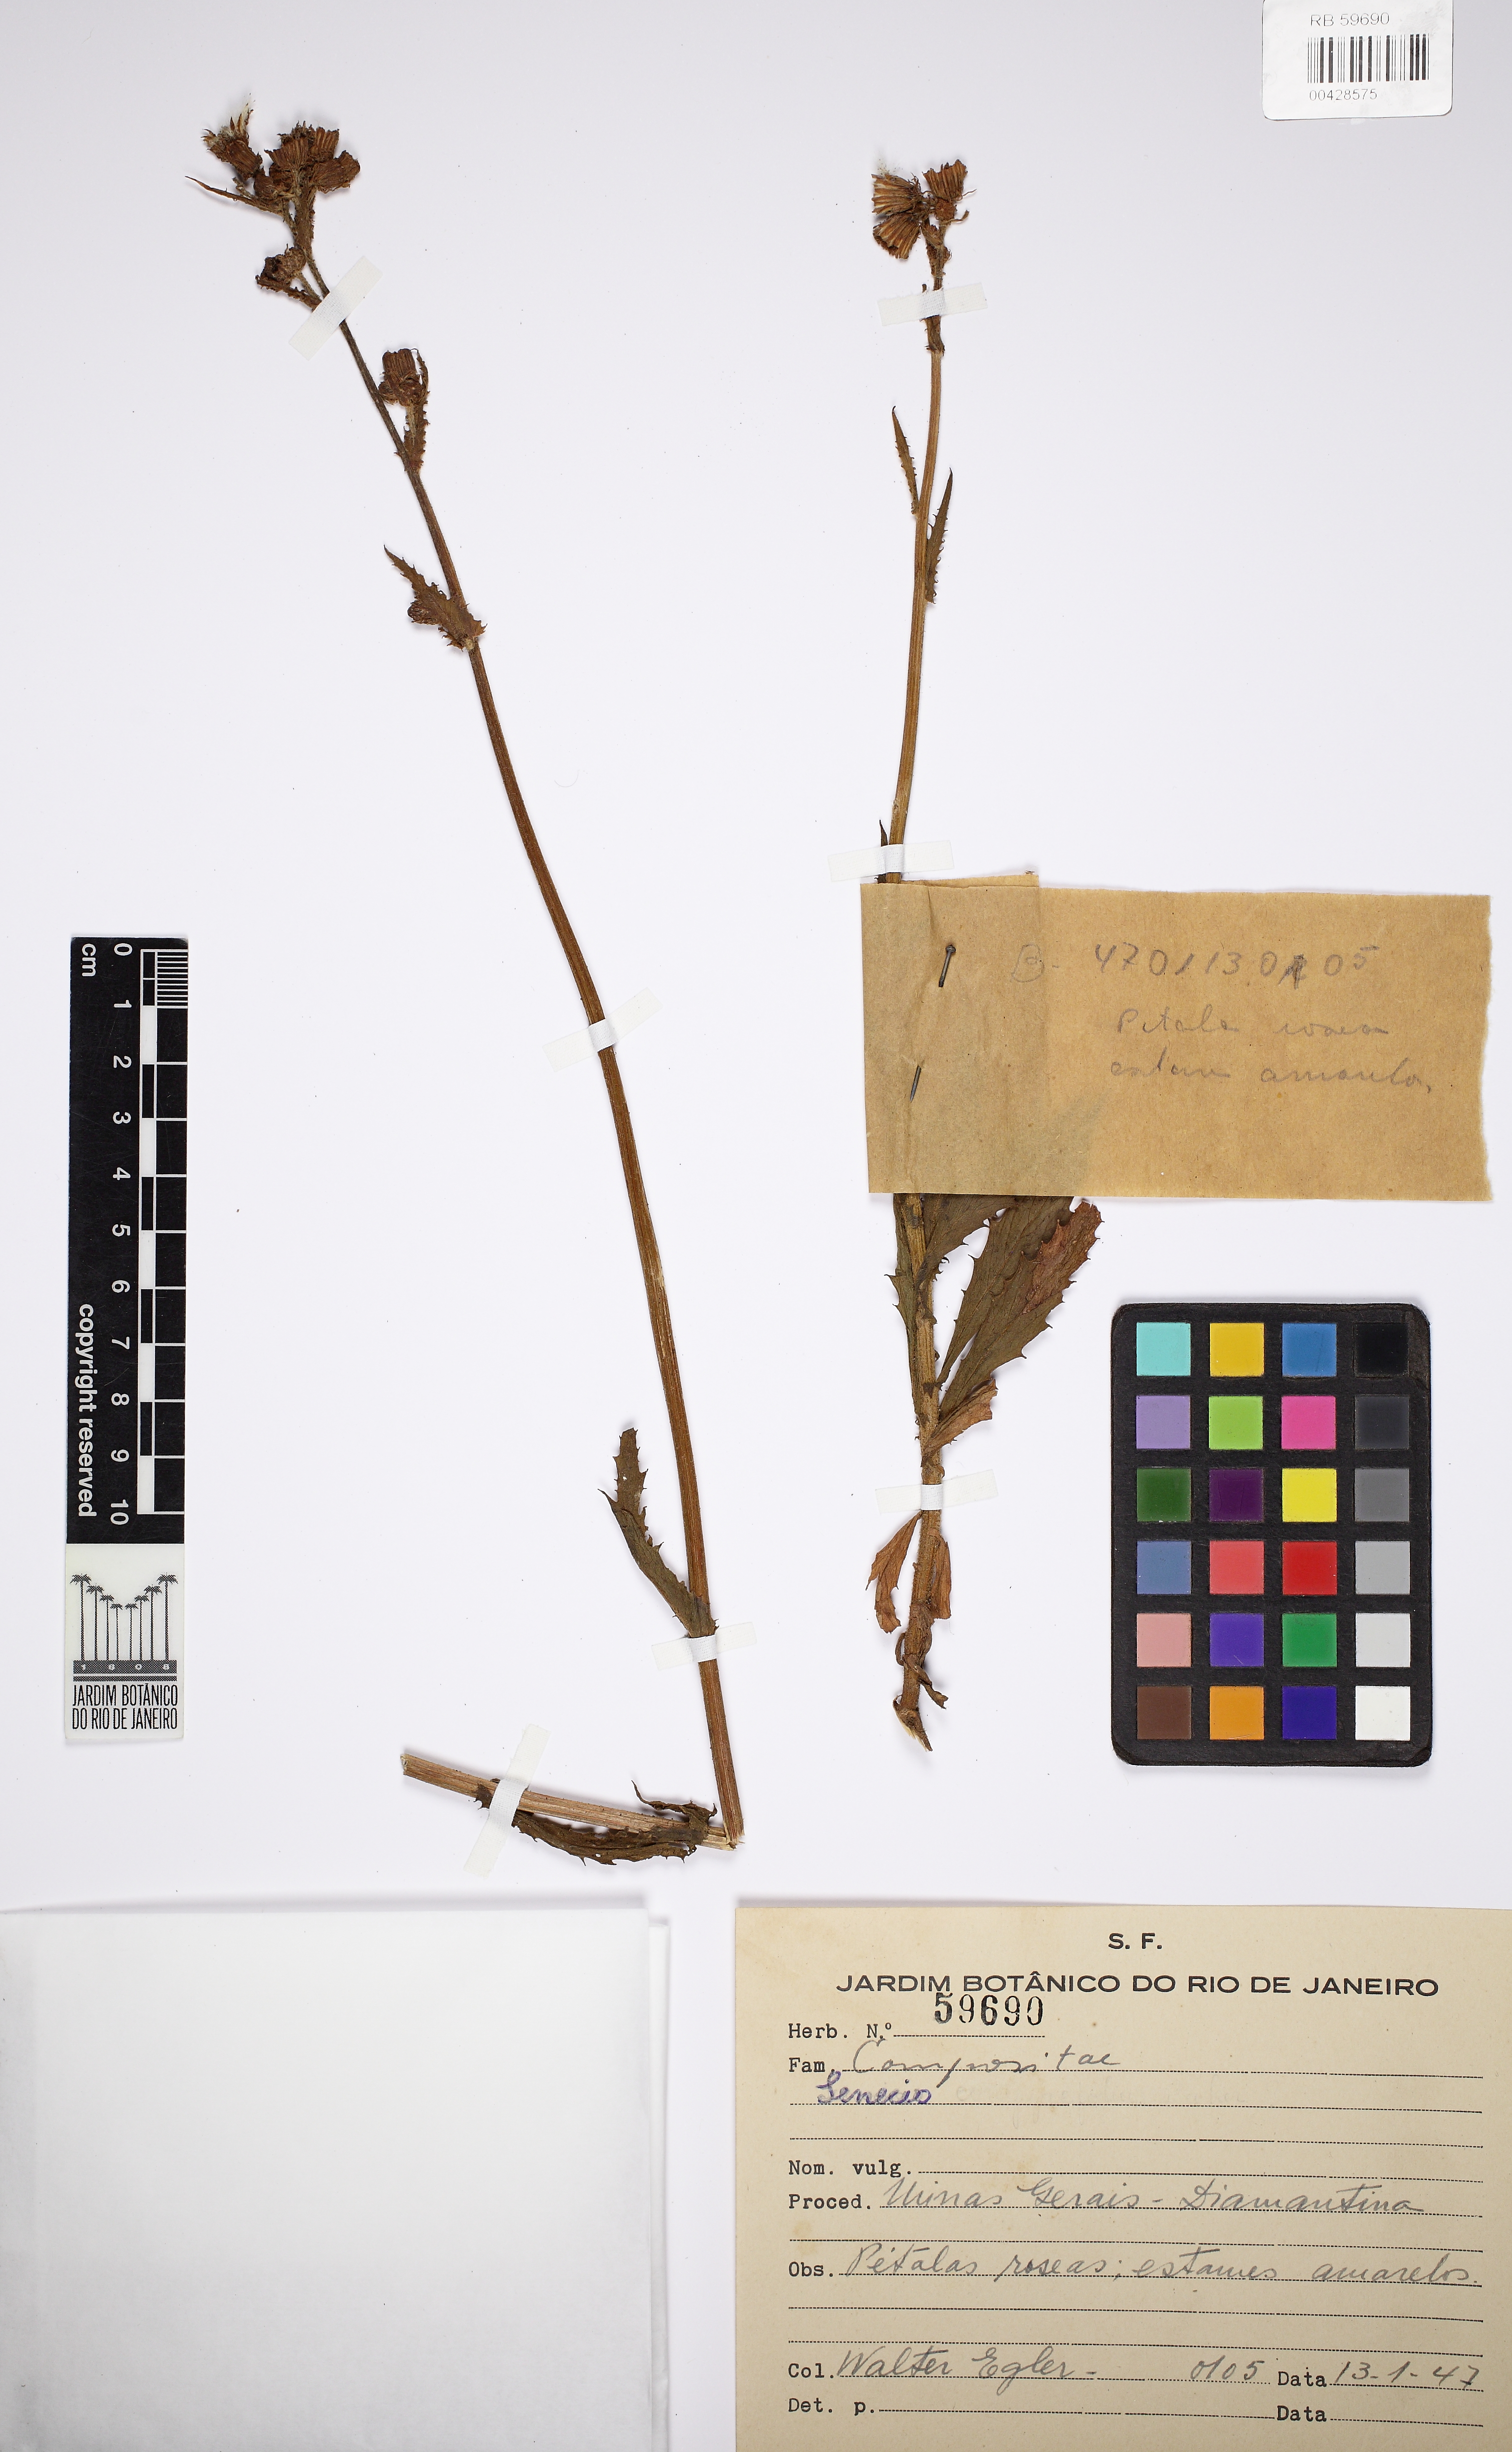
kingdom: Plantae
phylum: Tracheophyta
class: Magnoliopsida
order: Asterales
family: Asteraceae
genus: Senecio
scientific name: Senecio
